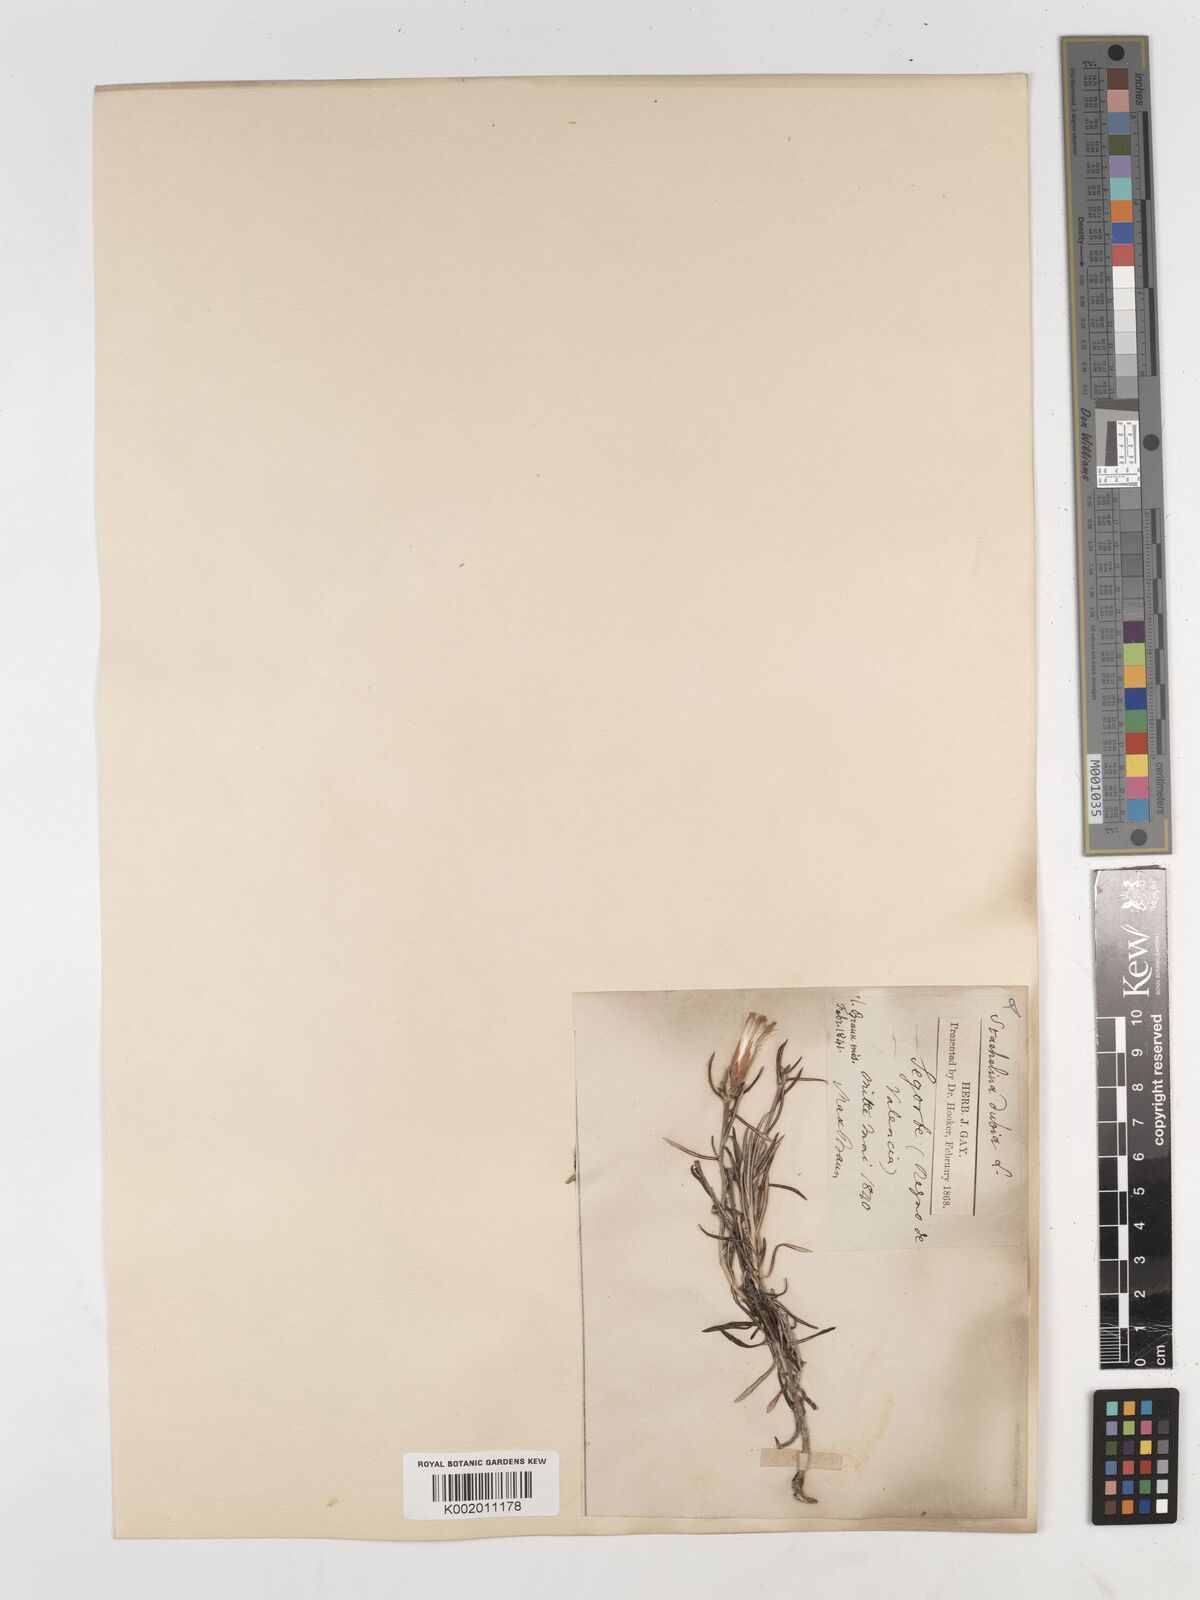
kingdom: Plantae
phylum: Tracheophyta
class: Magnoliopsida
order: Asterales
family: Asteraceae
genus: Staehelina
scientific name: Staehelina dubia
